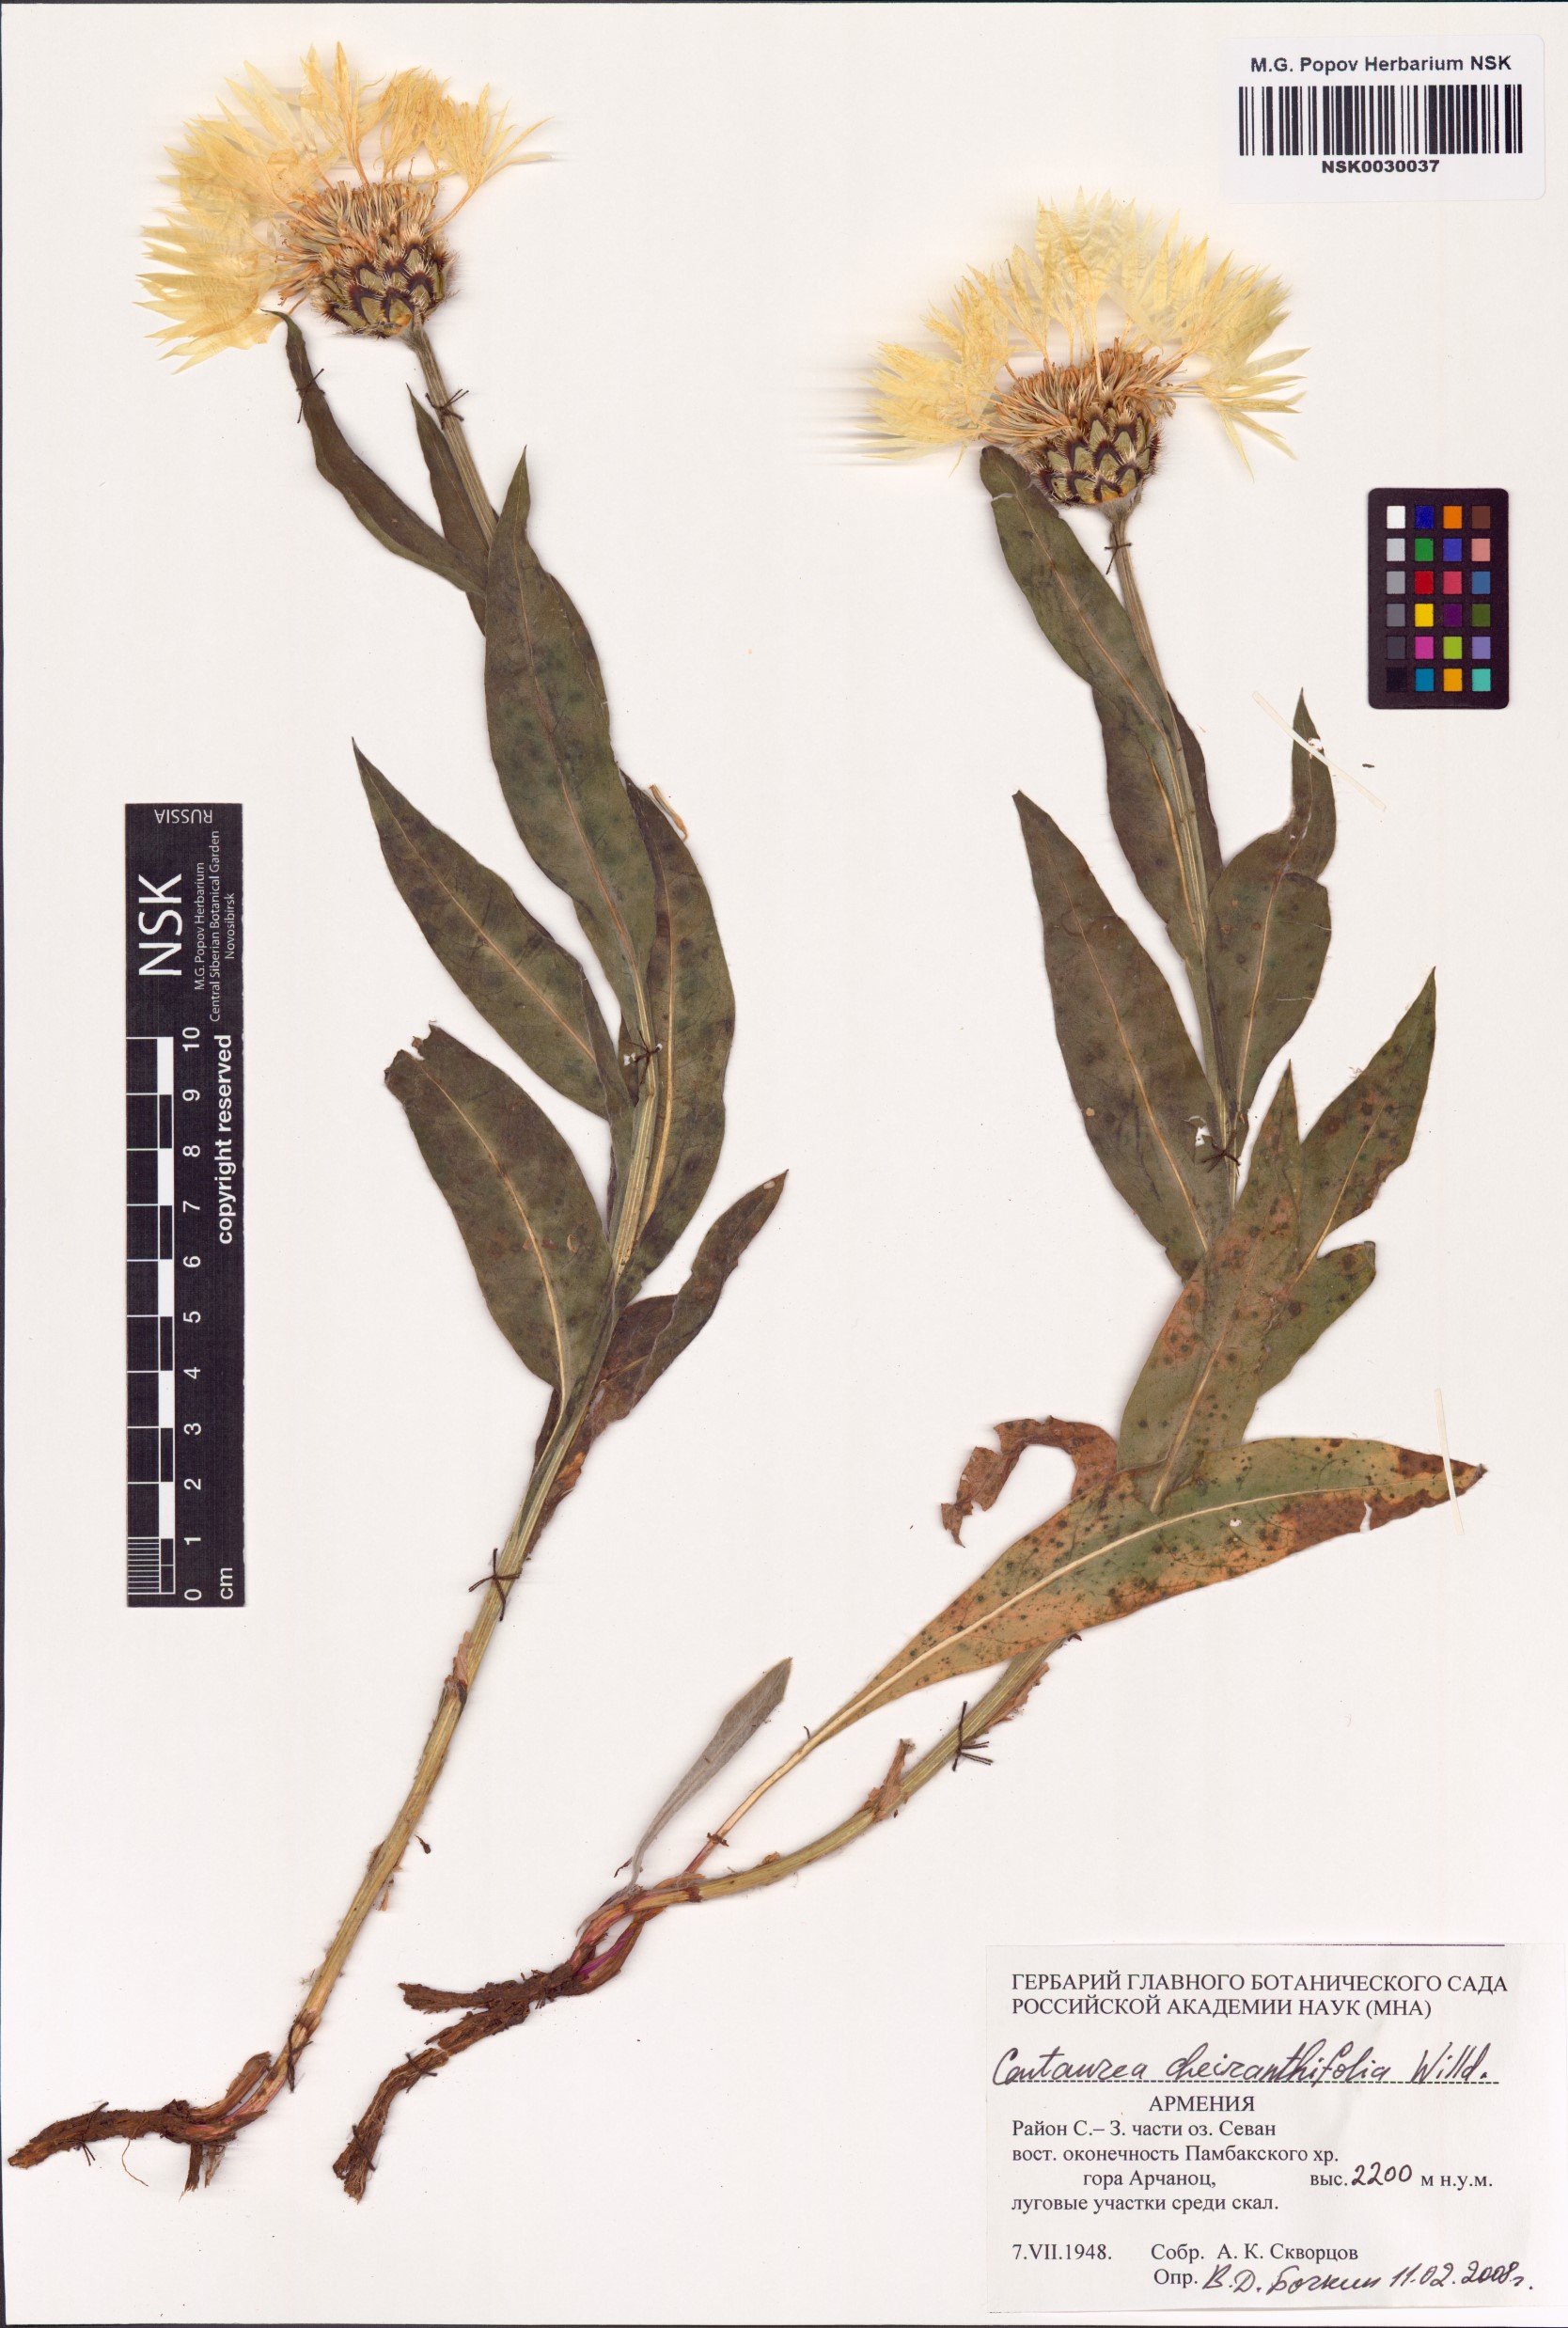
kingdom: Plantae
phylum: Tracheophyta
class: Magnoliopsida
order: Asterales
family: Asteraceae
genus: Centaurea
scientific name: Centaurea cheiranthifolia
